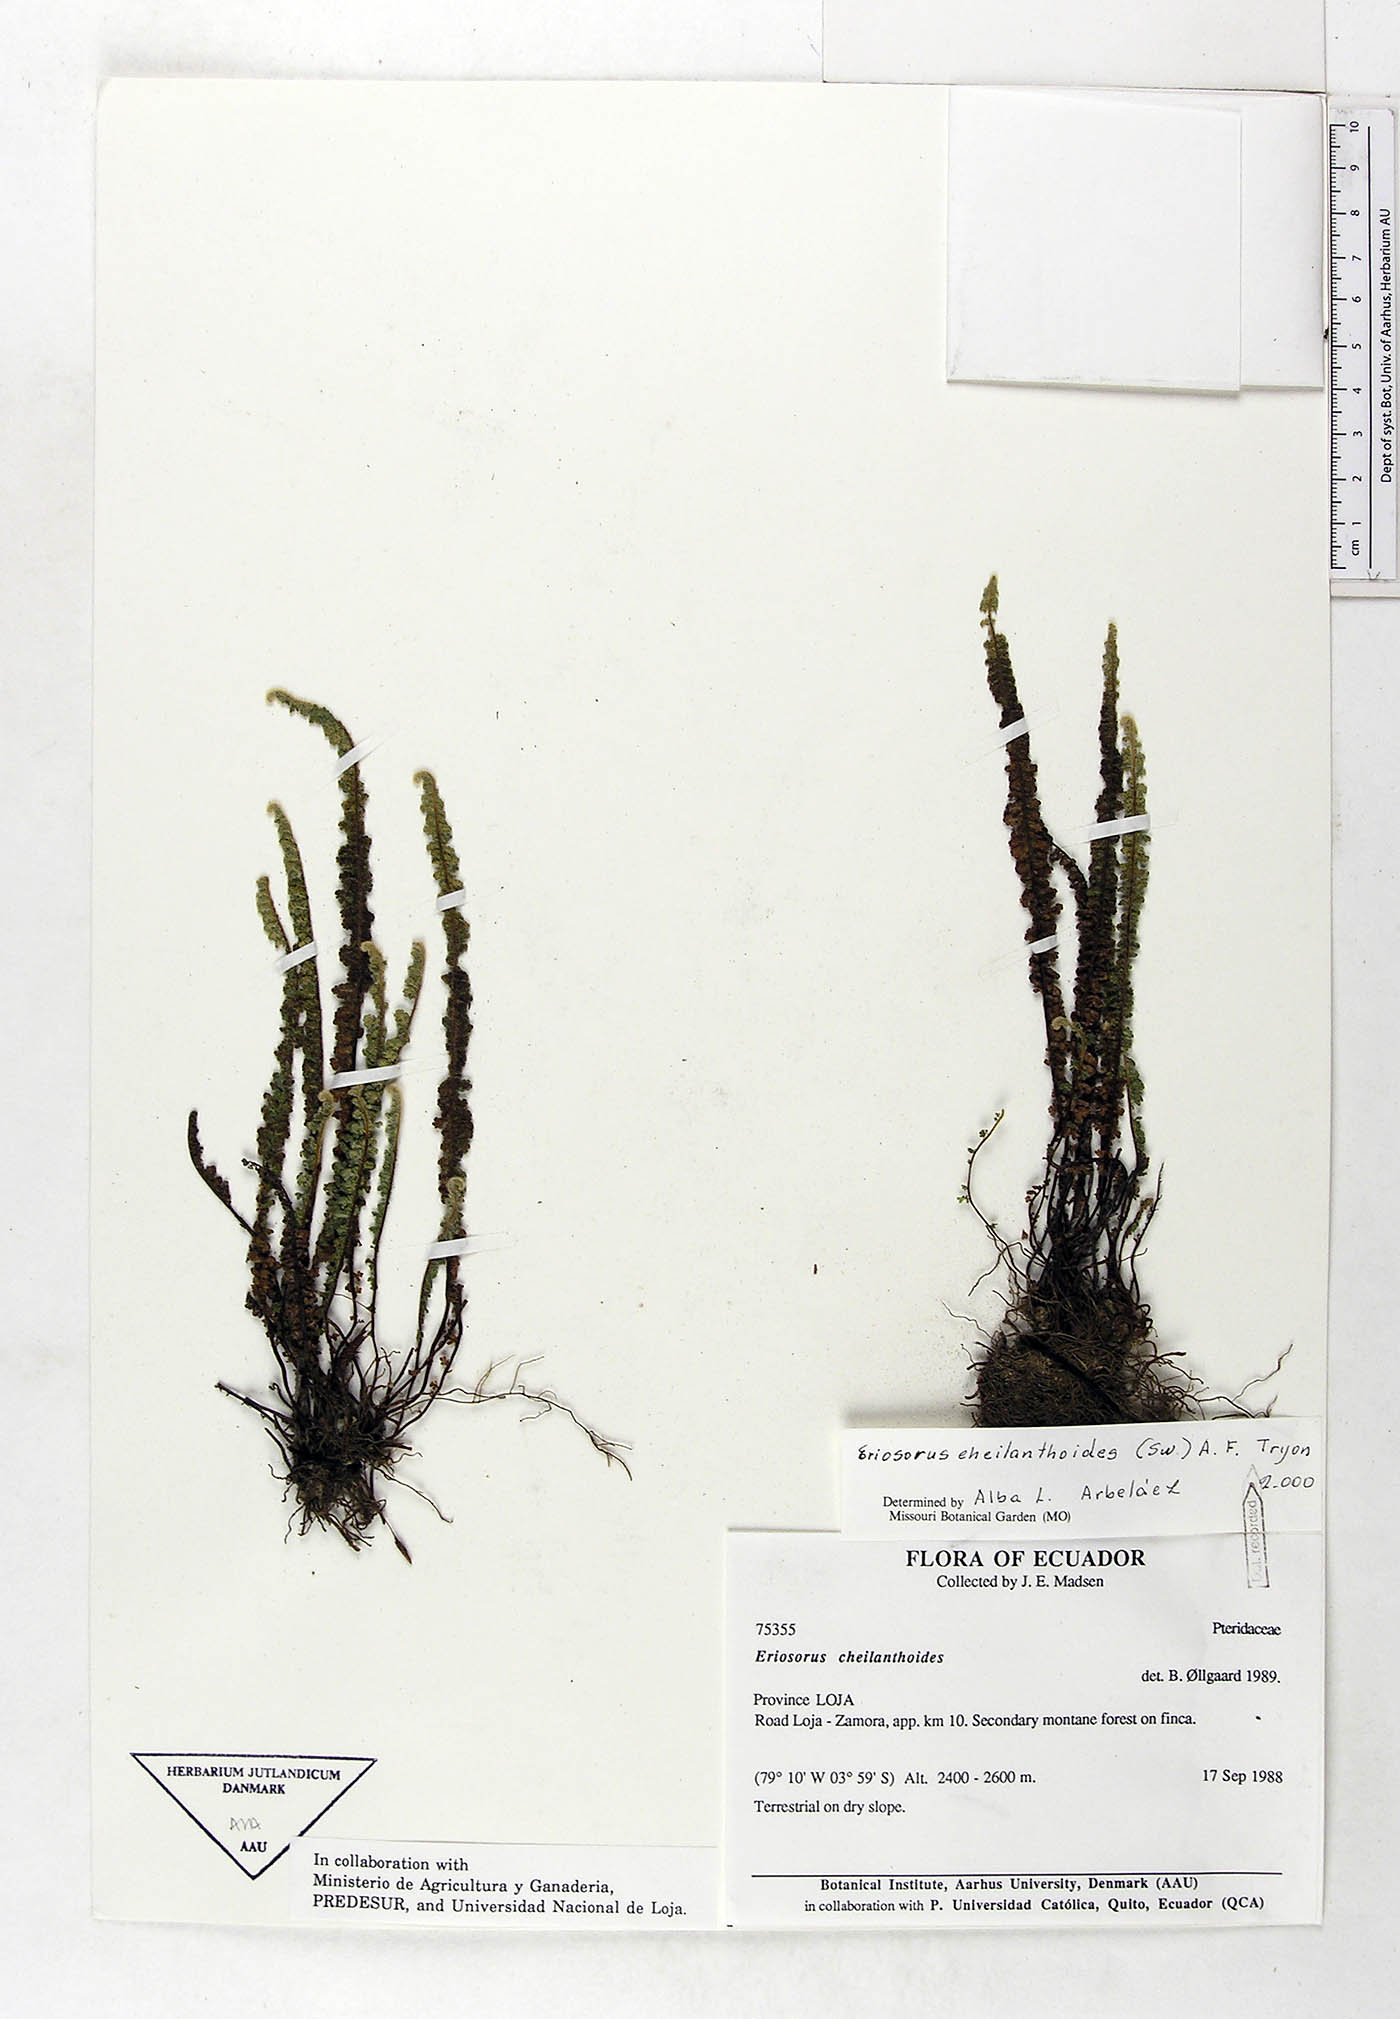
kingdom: Plantae
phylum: Tracheophyta
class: Polypodiopsida
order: Polypodiales
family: Pteridaceae
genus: Jamesonia
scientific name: Jamesonia cheilanthoides
